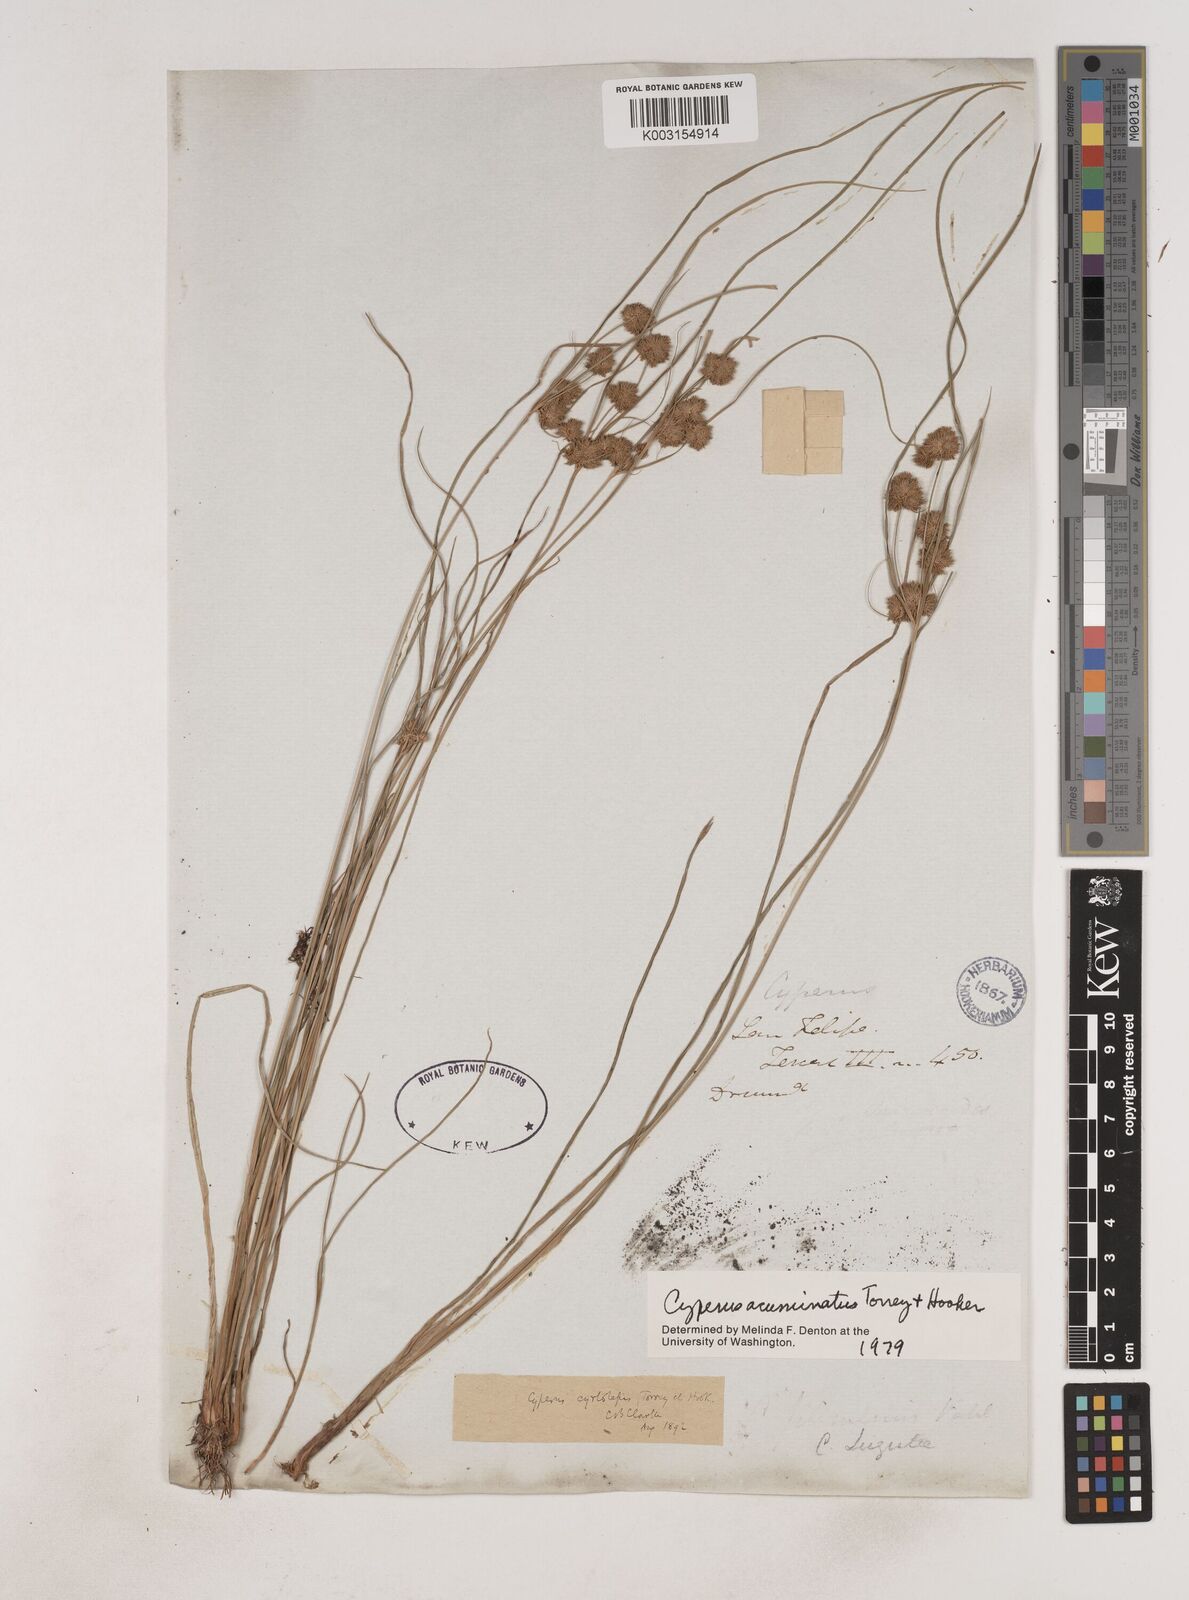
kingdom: Plantae
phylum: Tracheophyta
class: Liliopsida
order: Poales
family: Cyperaceae
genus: Cyperus
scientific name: Cyperus acuminatus
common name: Short-pointed cyperus
